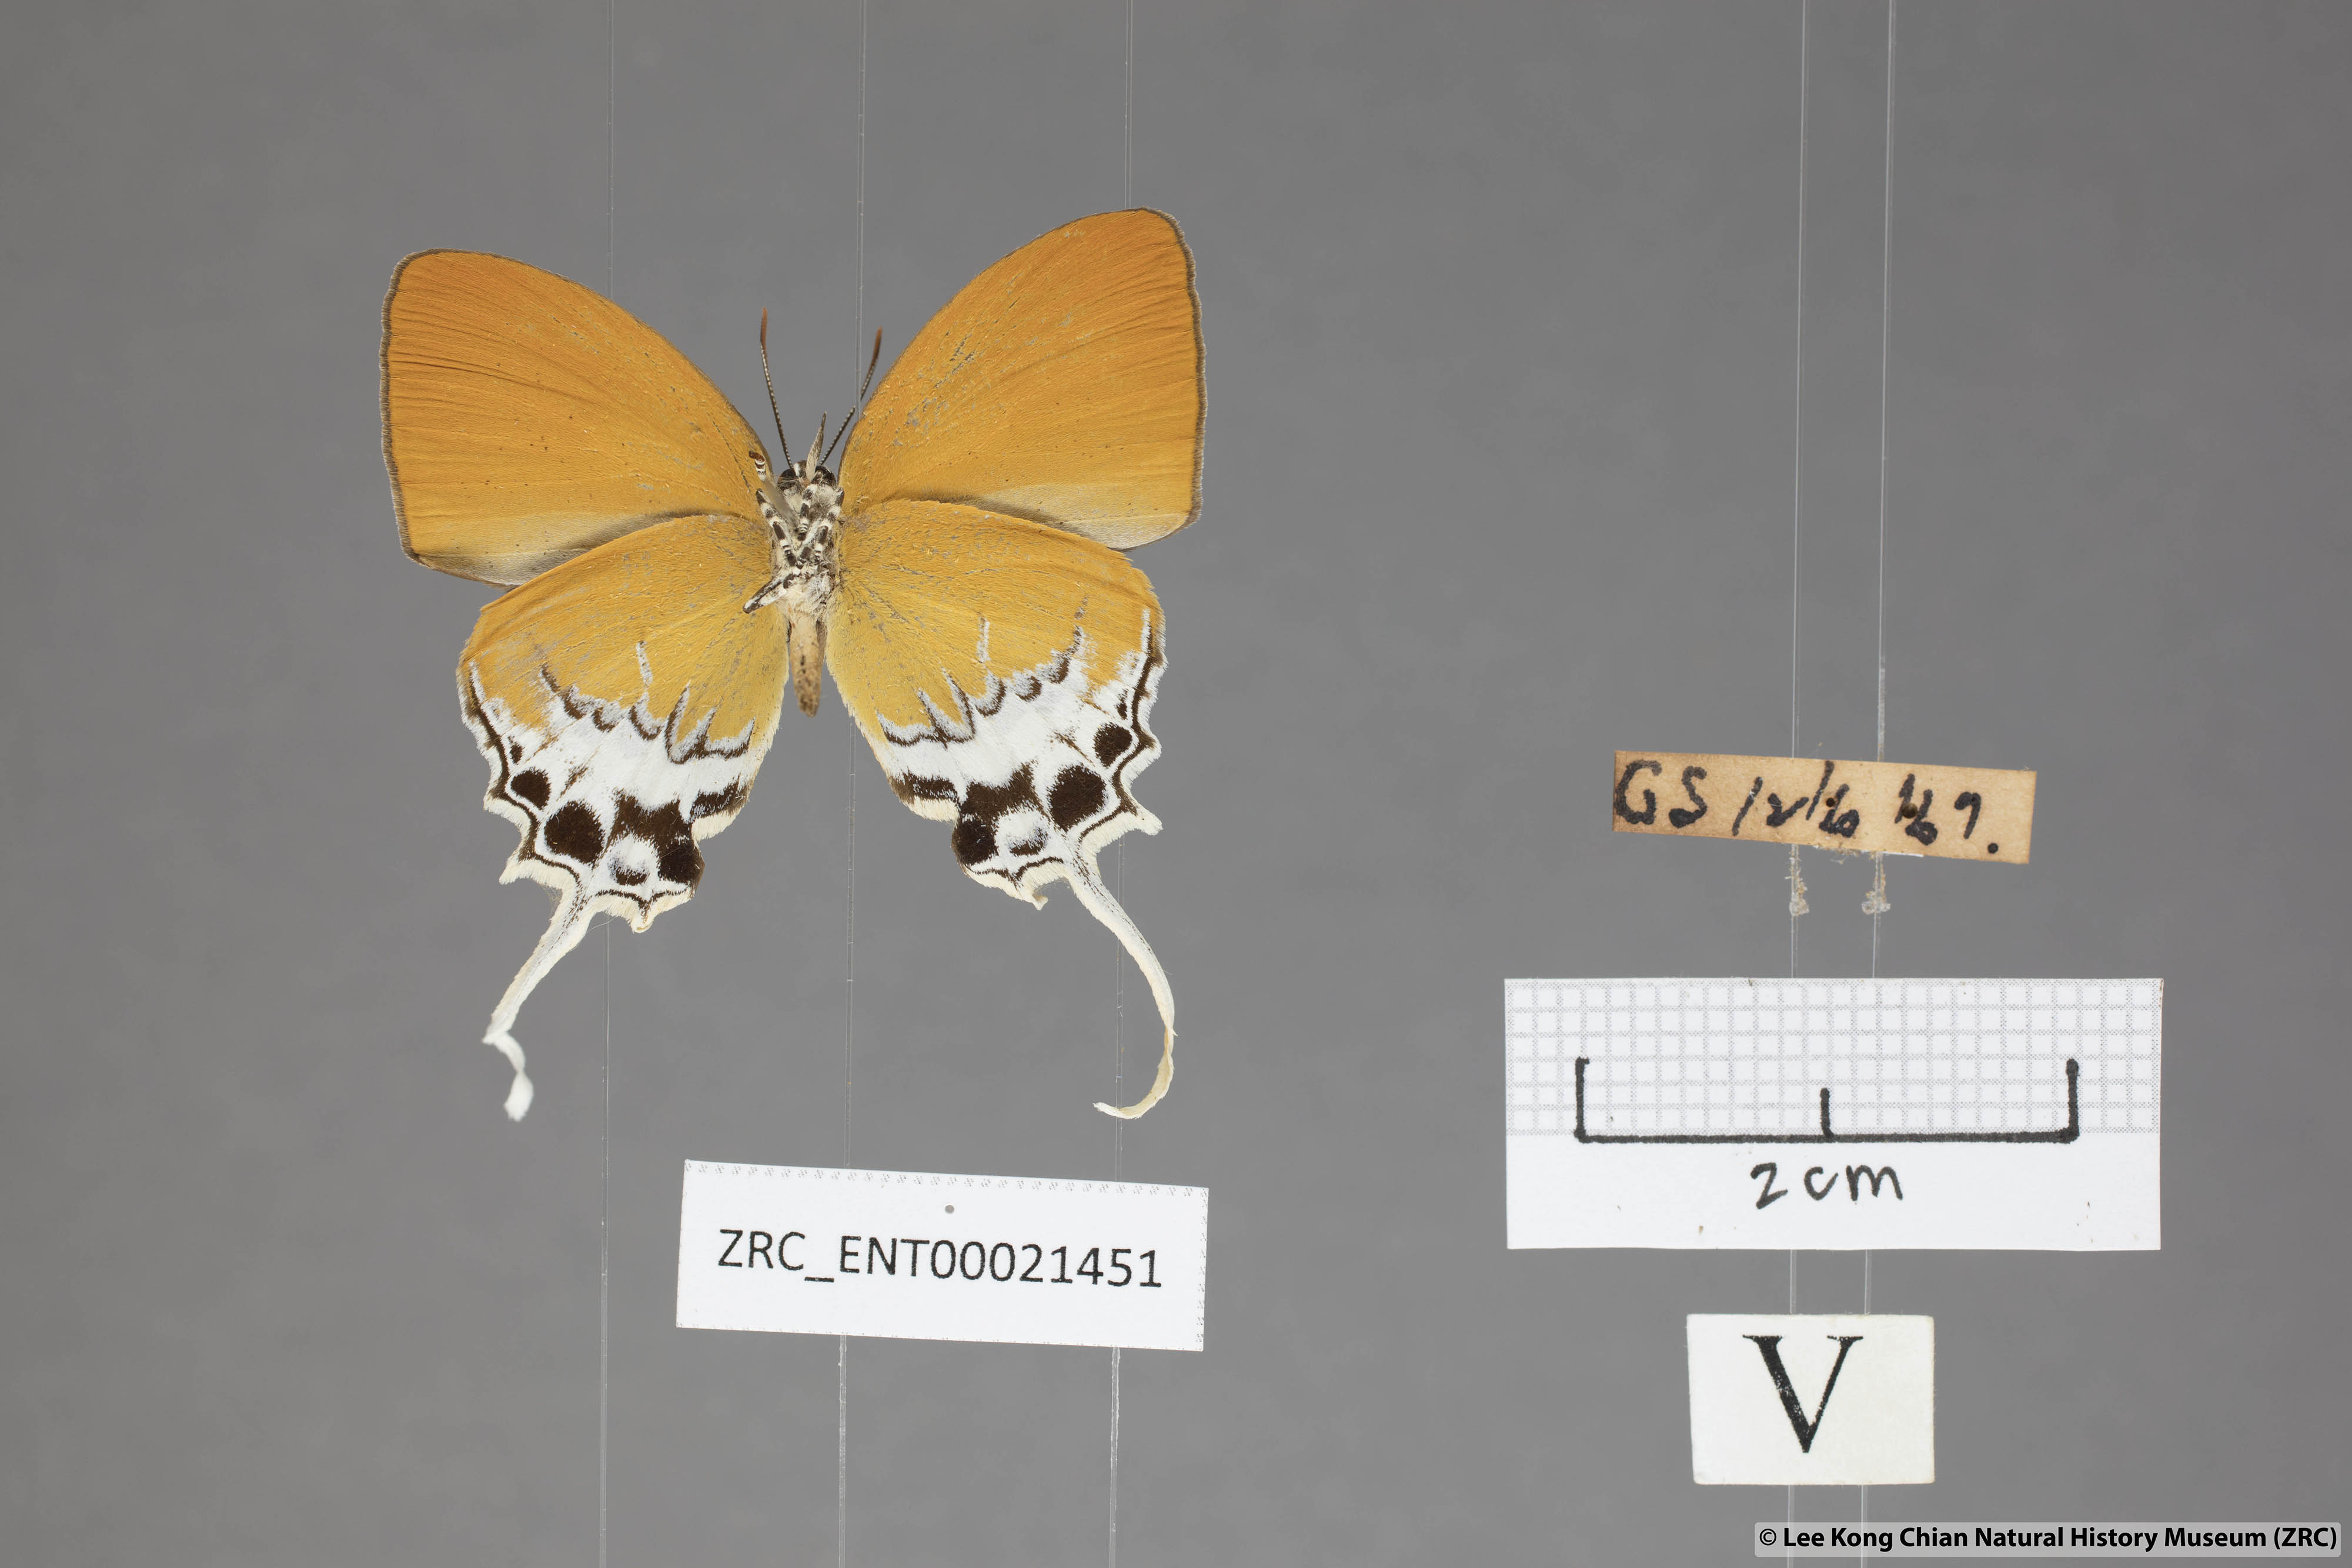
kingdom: Animalia
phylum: Arthropoda
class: Insecta
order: Lepidoptera
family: Lycaenidae
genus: Eooxylides
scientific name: Eooxylides tharis
